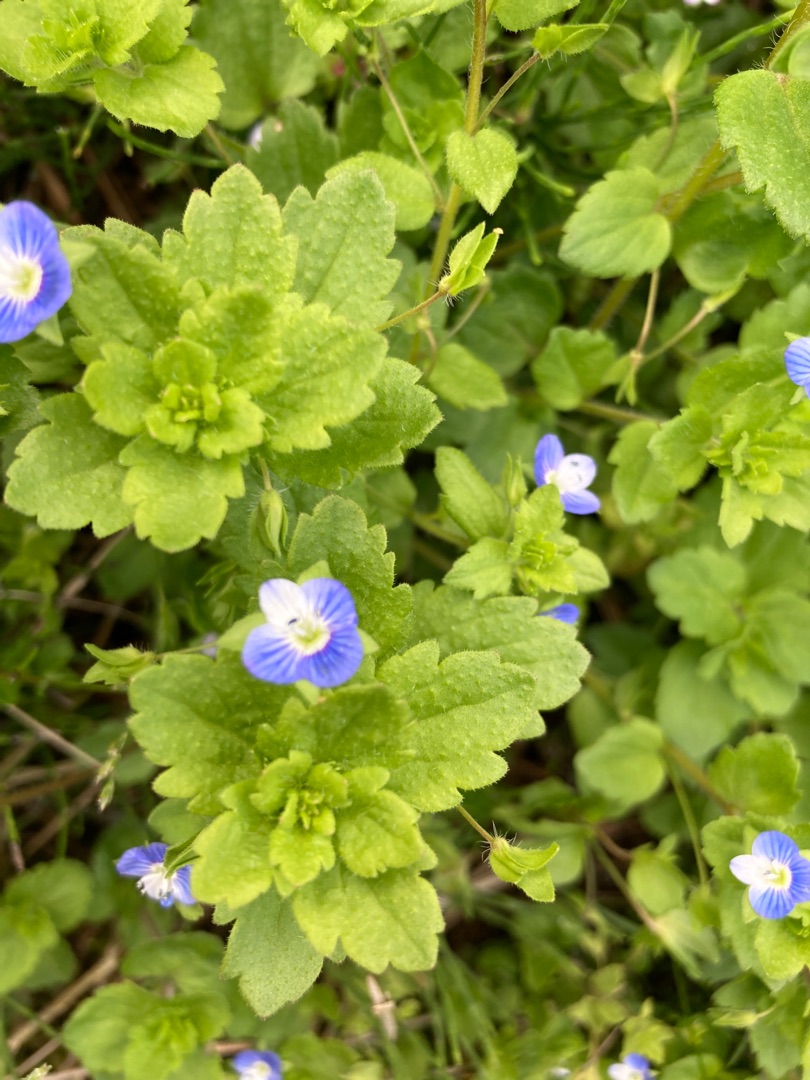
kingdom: Plantae
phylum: Tracheophyta
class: Magnoliopsida
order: Lamiales
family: Plantaginaceae
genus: Veronica
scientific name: Veronica persica
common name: Storkronet ærenpris
